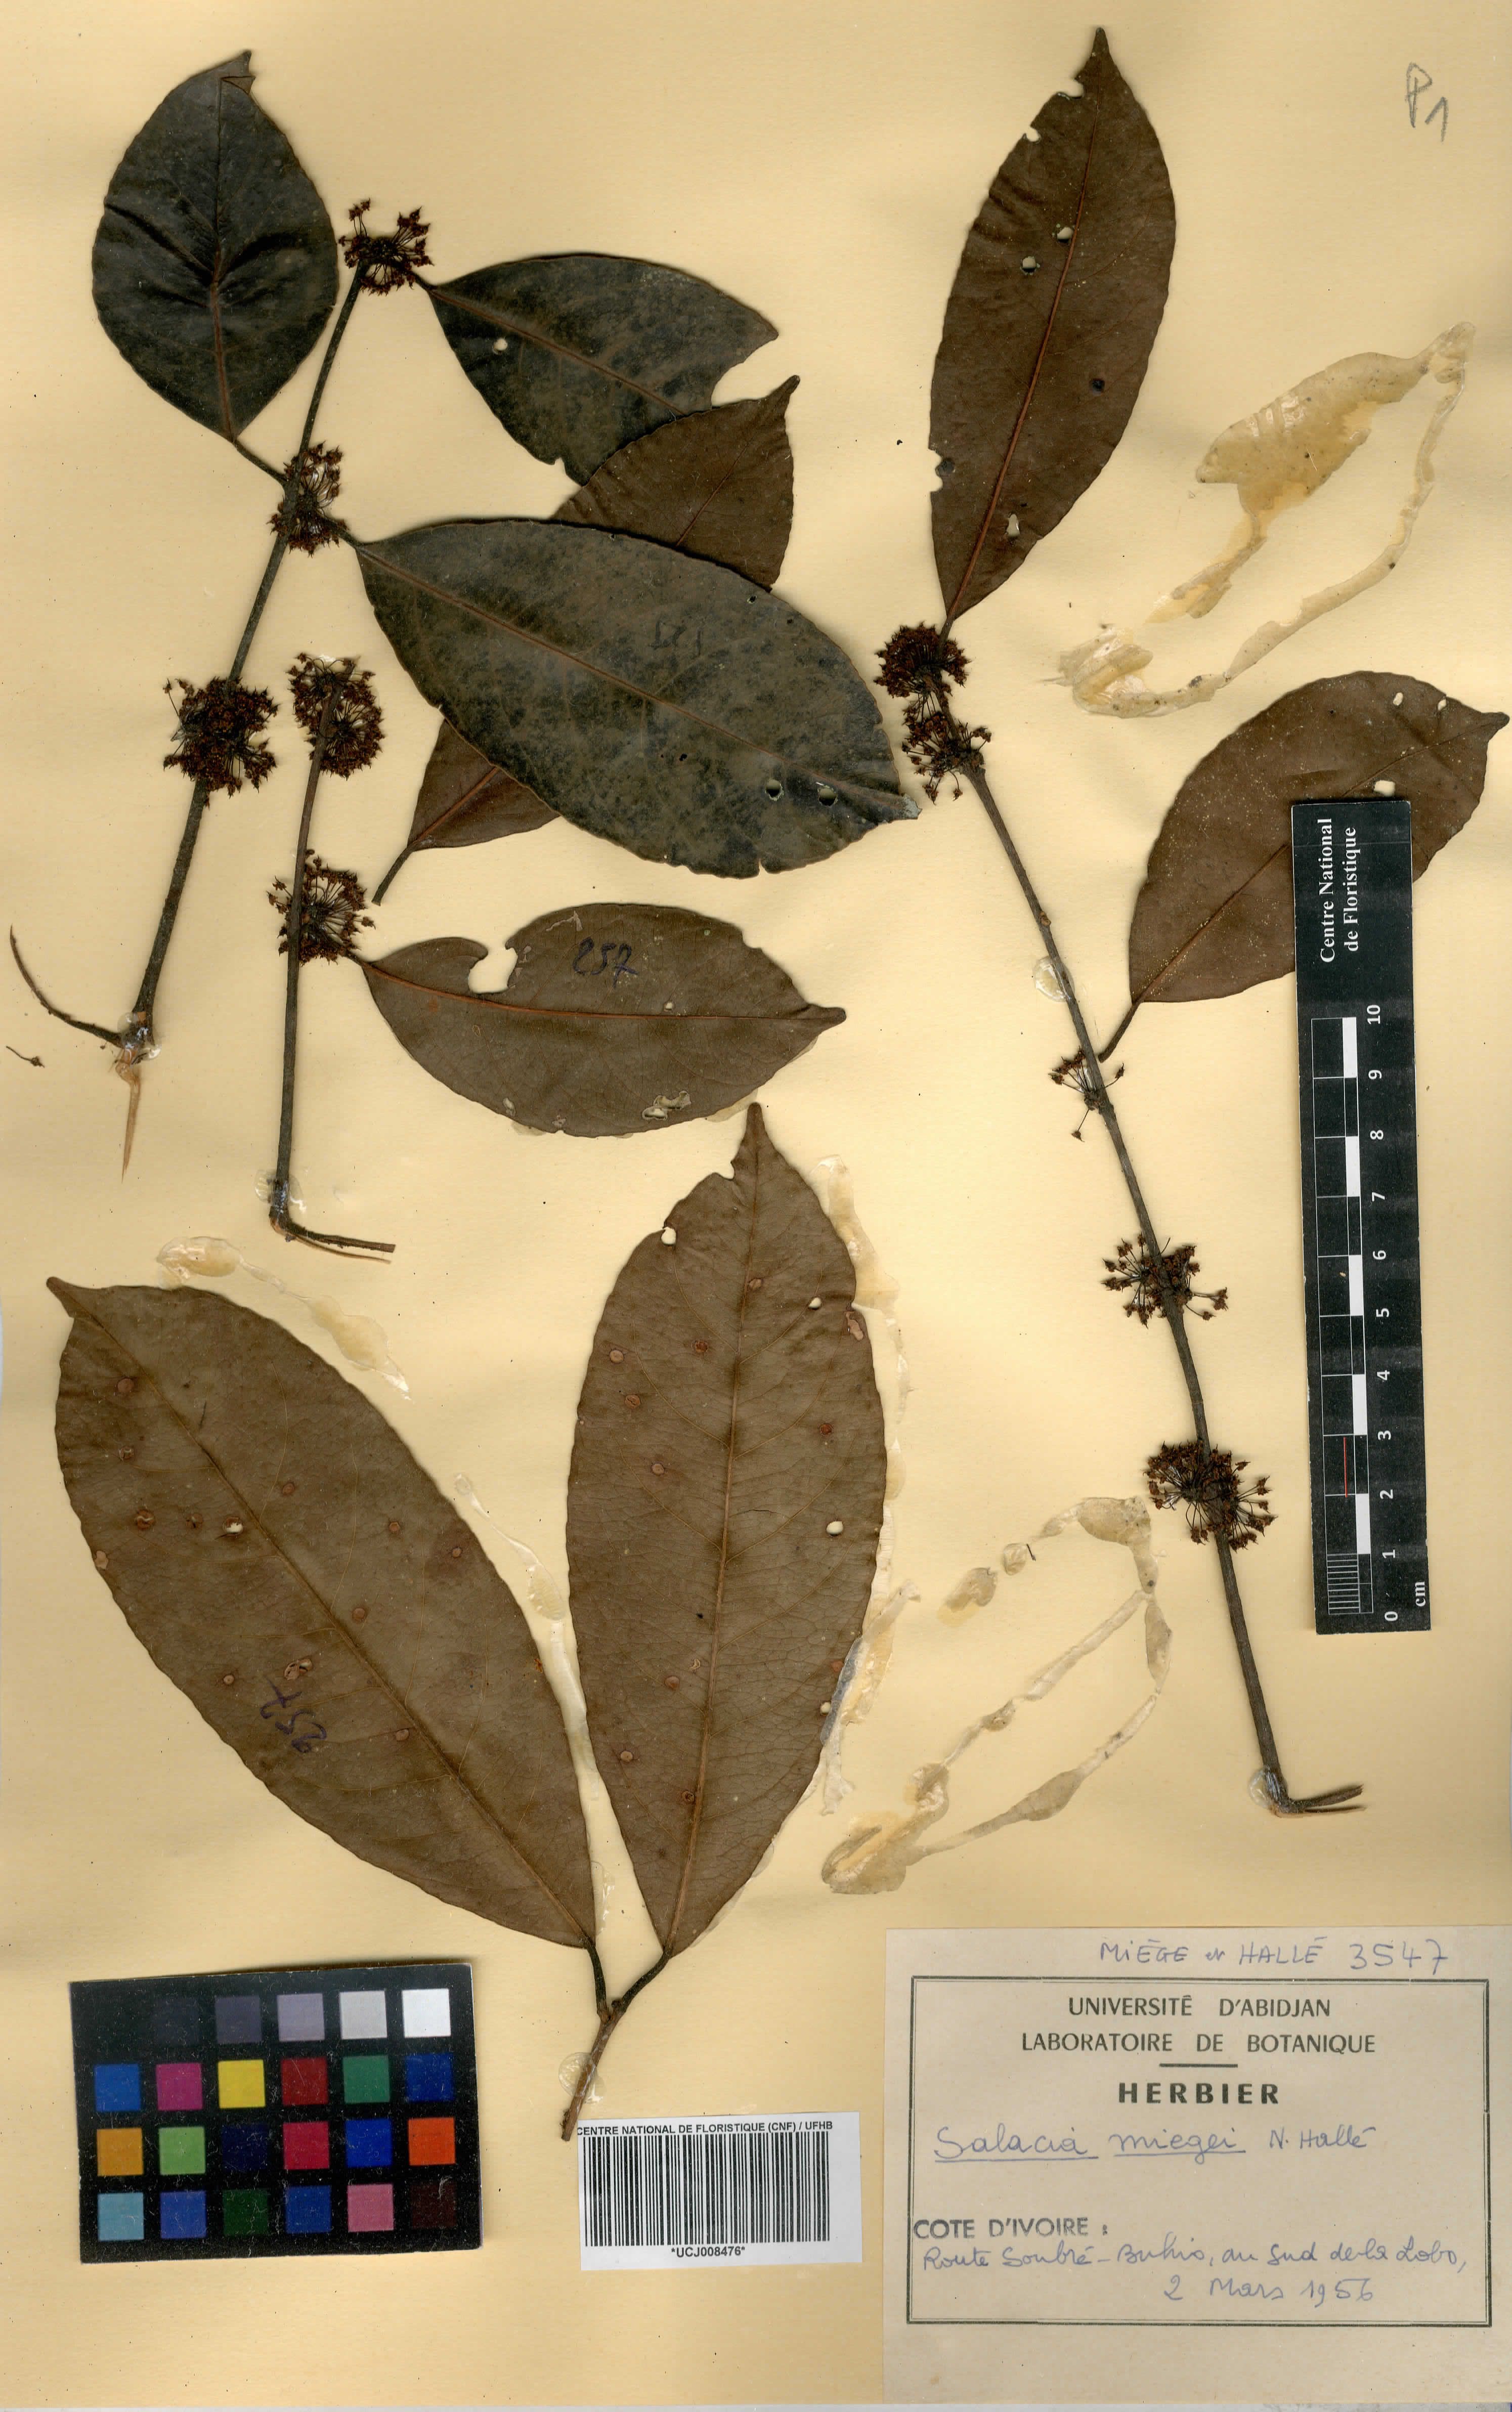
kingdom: Plantae
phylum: Tracheophyta
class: Magnoliopsida
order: Celastrales
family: Celastraceae
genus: Salacia
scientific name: Salacia miegei
